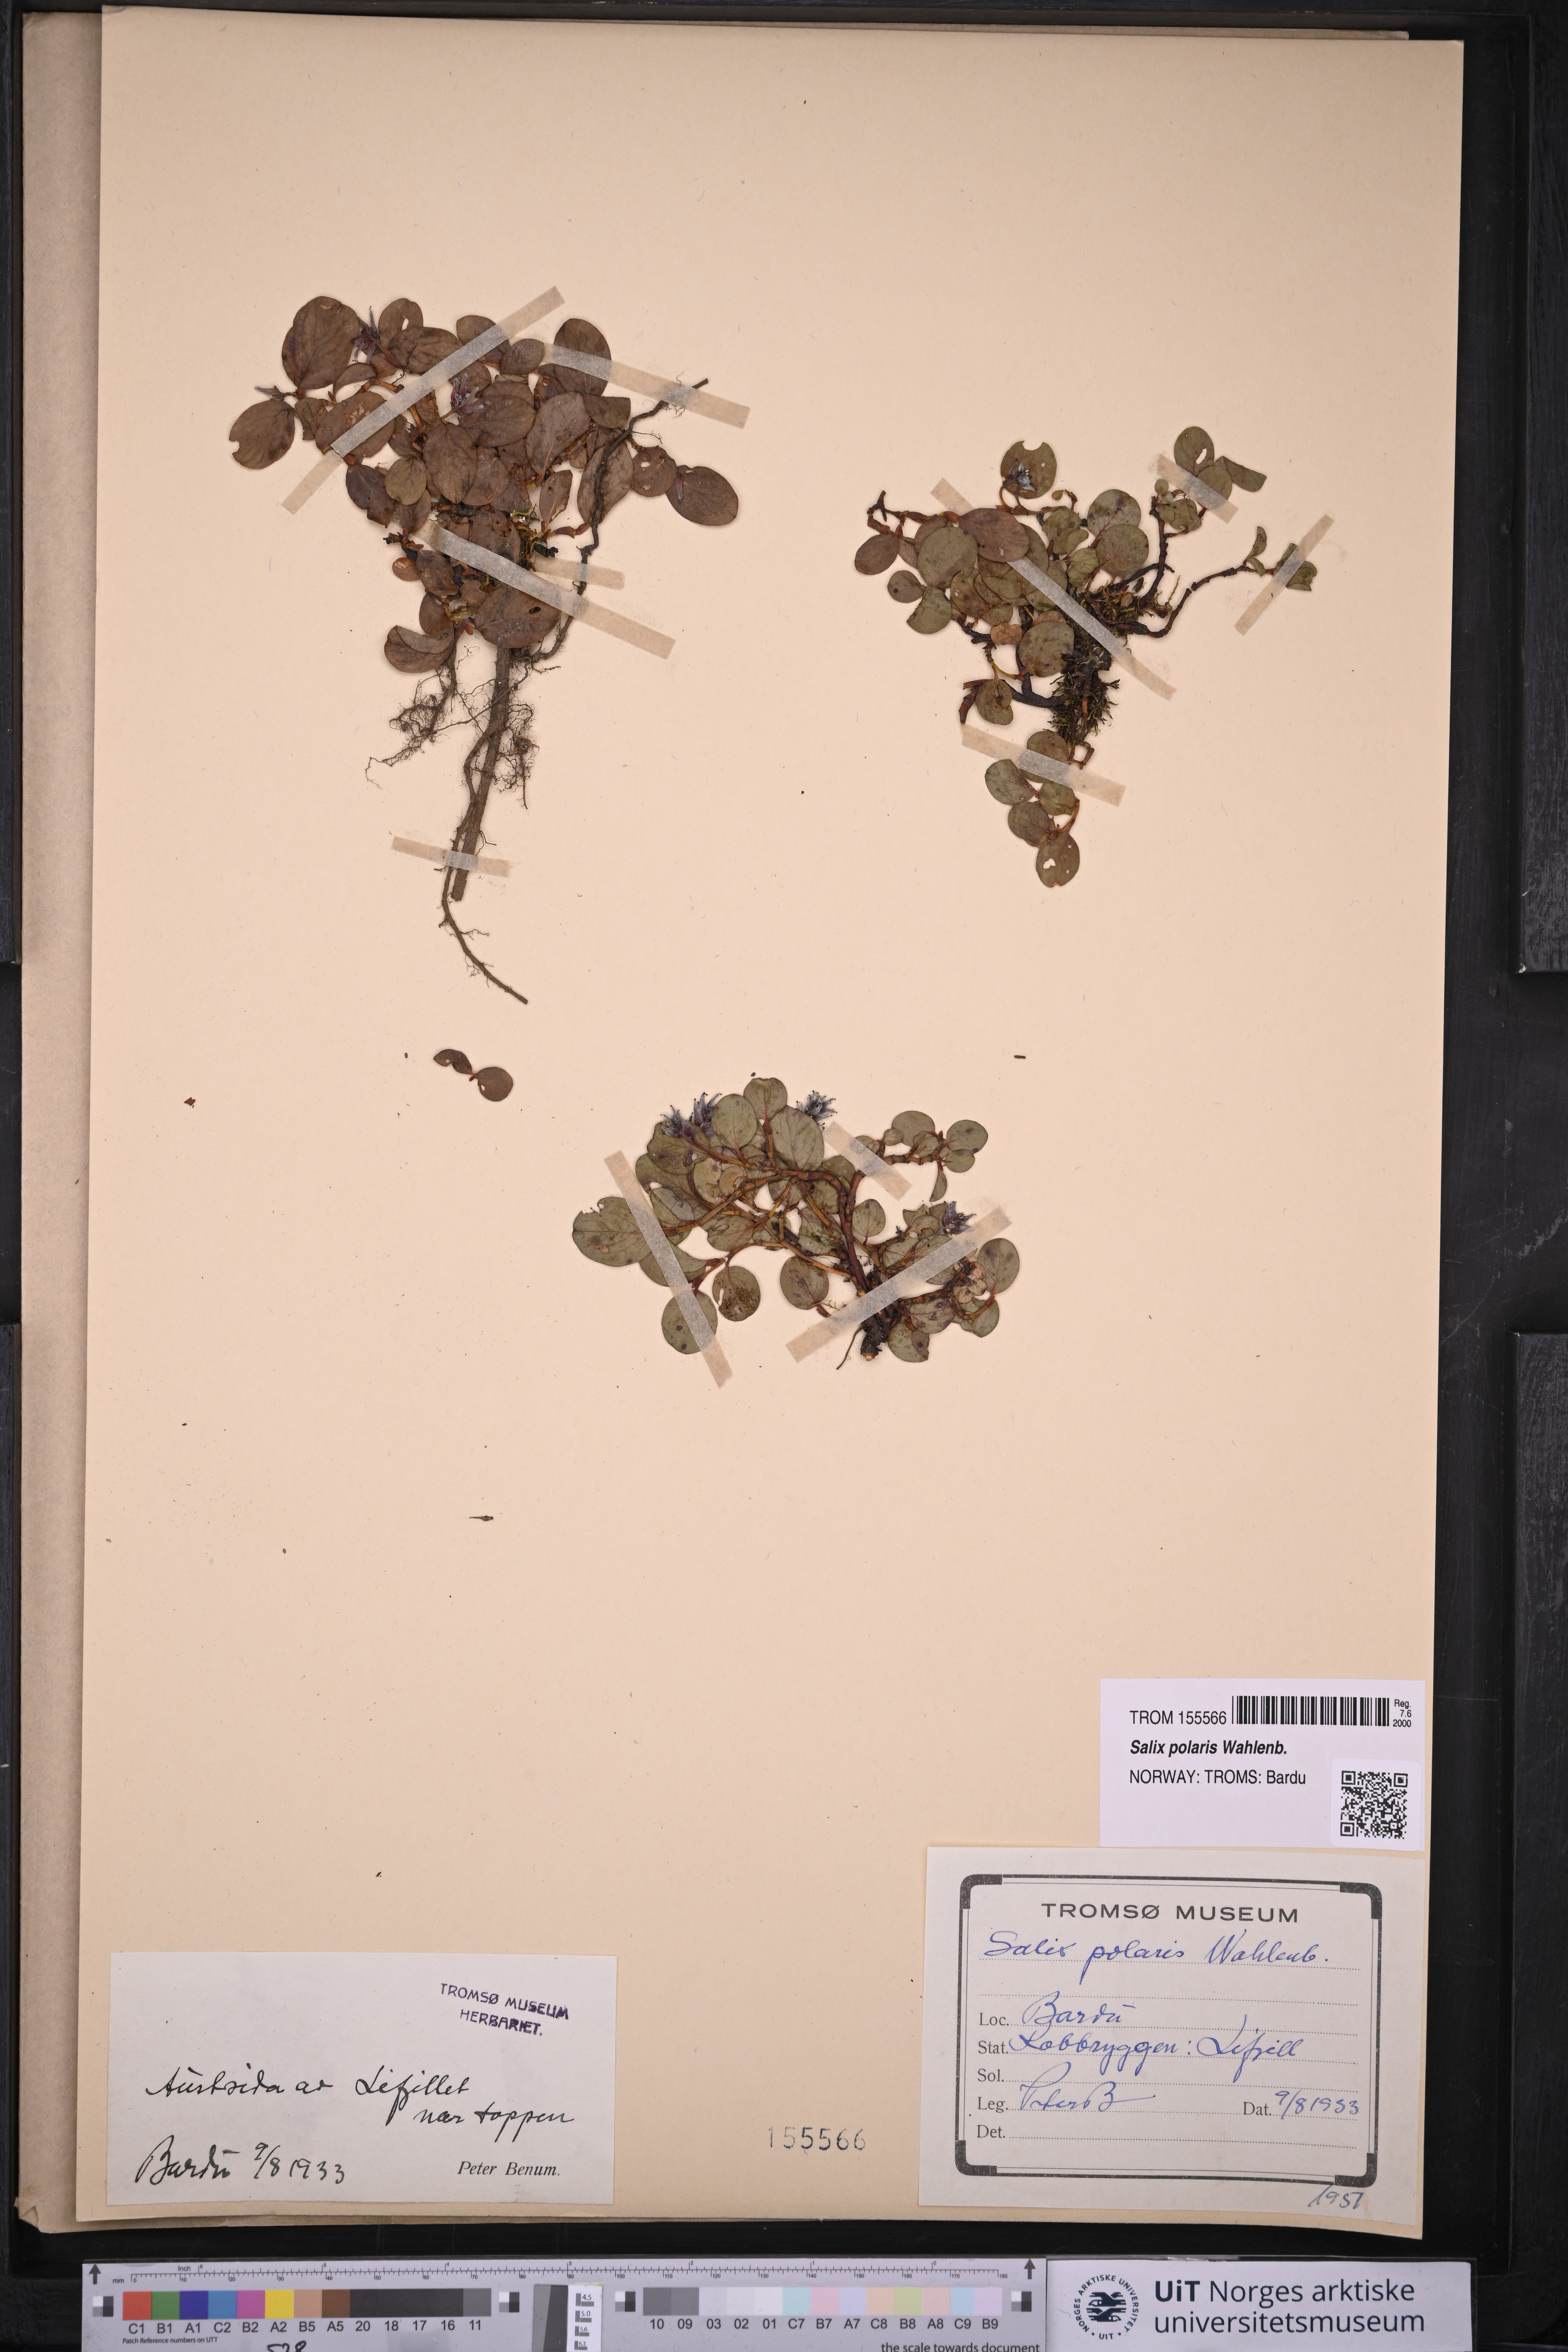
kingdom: Plantae
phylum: Tracheophyta
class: Magnoliopsida
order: Malpighiales
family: Salicaceae
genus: Salix
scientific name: Salix polaris
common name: Polar willow
